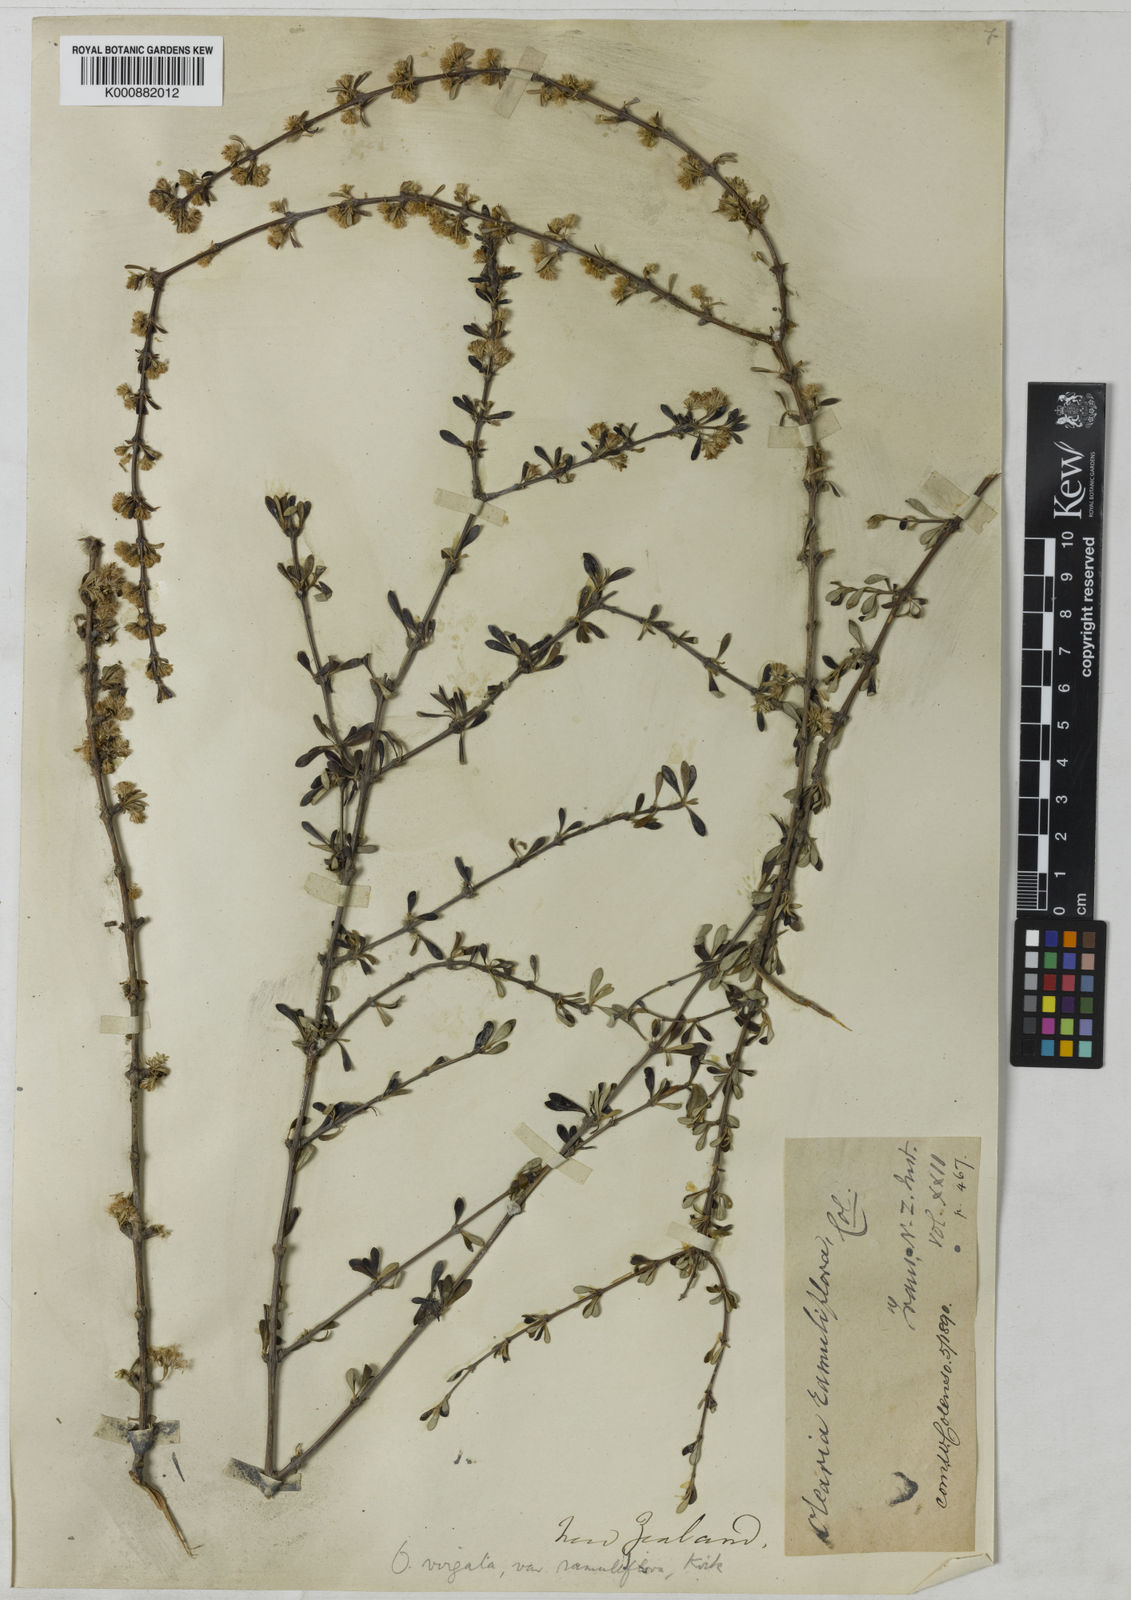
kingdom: Plantae
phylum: Tracheophyta
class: Magnoliopsida
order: Asterales
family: Asteraceae
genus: Olearia
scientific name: Olearia virgata
